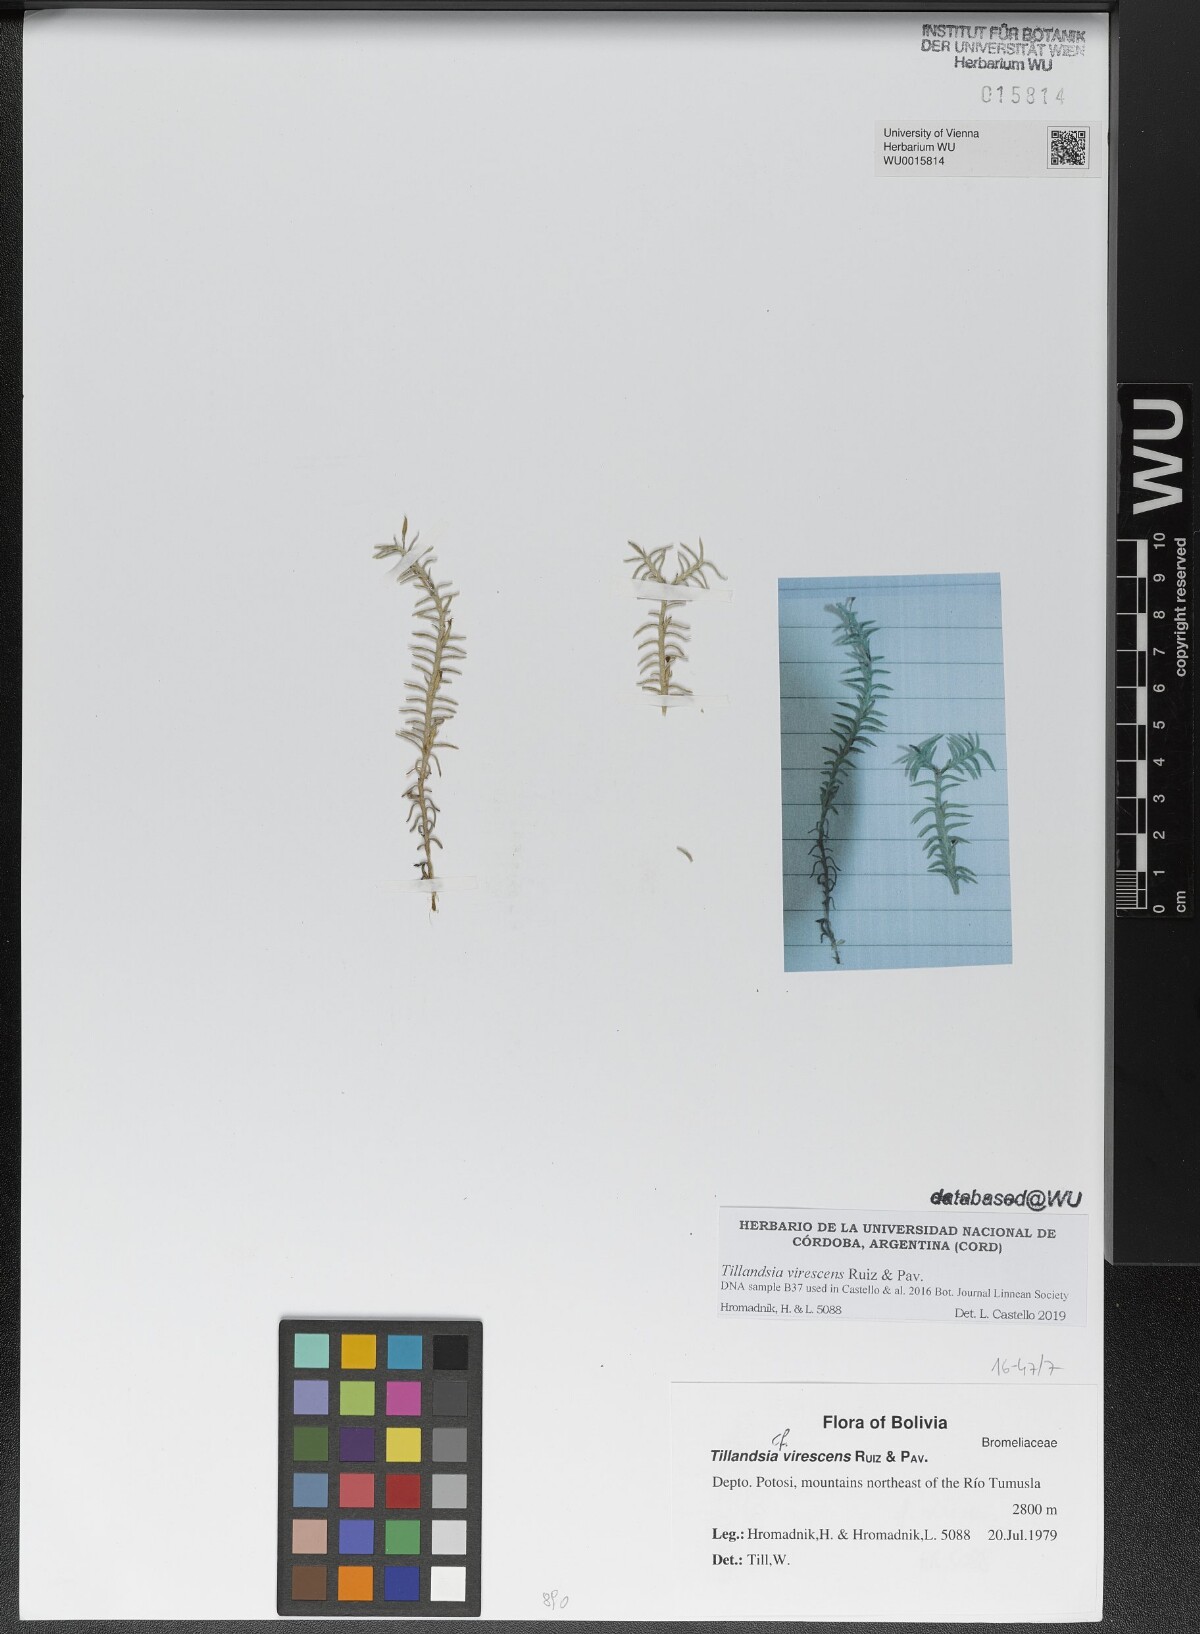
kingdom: Plantae
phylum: Tracheophyta
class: Liliopsida
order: Poales
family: Bromeliaceae
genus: Tillandsia
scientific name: Tillandsia virescens
